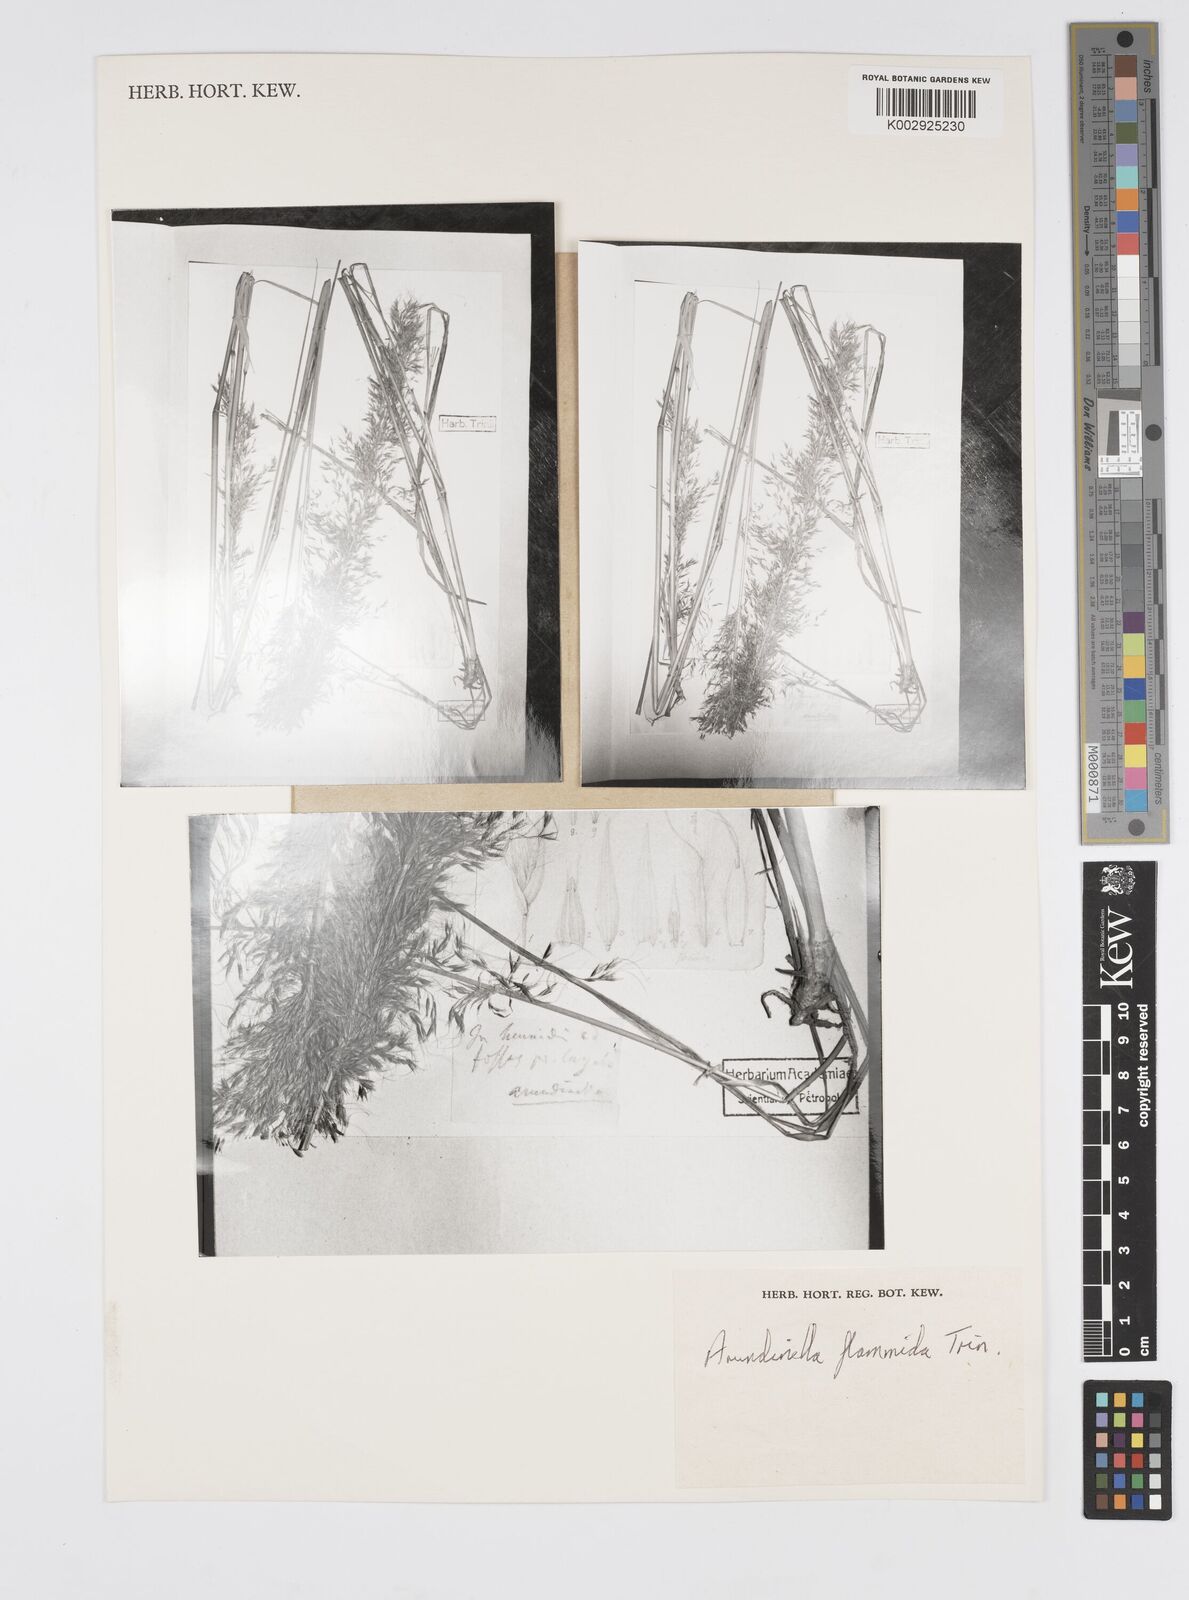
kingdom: Plantae
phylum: Tracheophyta
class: Liliopsida
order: Poales
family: Poaceae
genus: Loudetia
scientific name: Loudetia flammida
